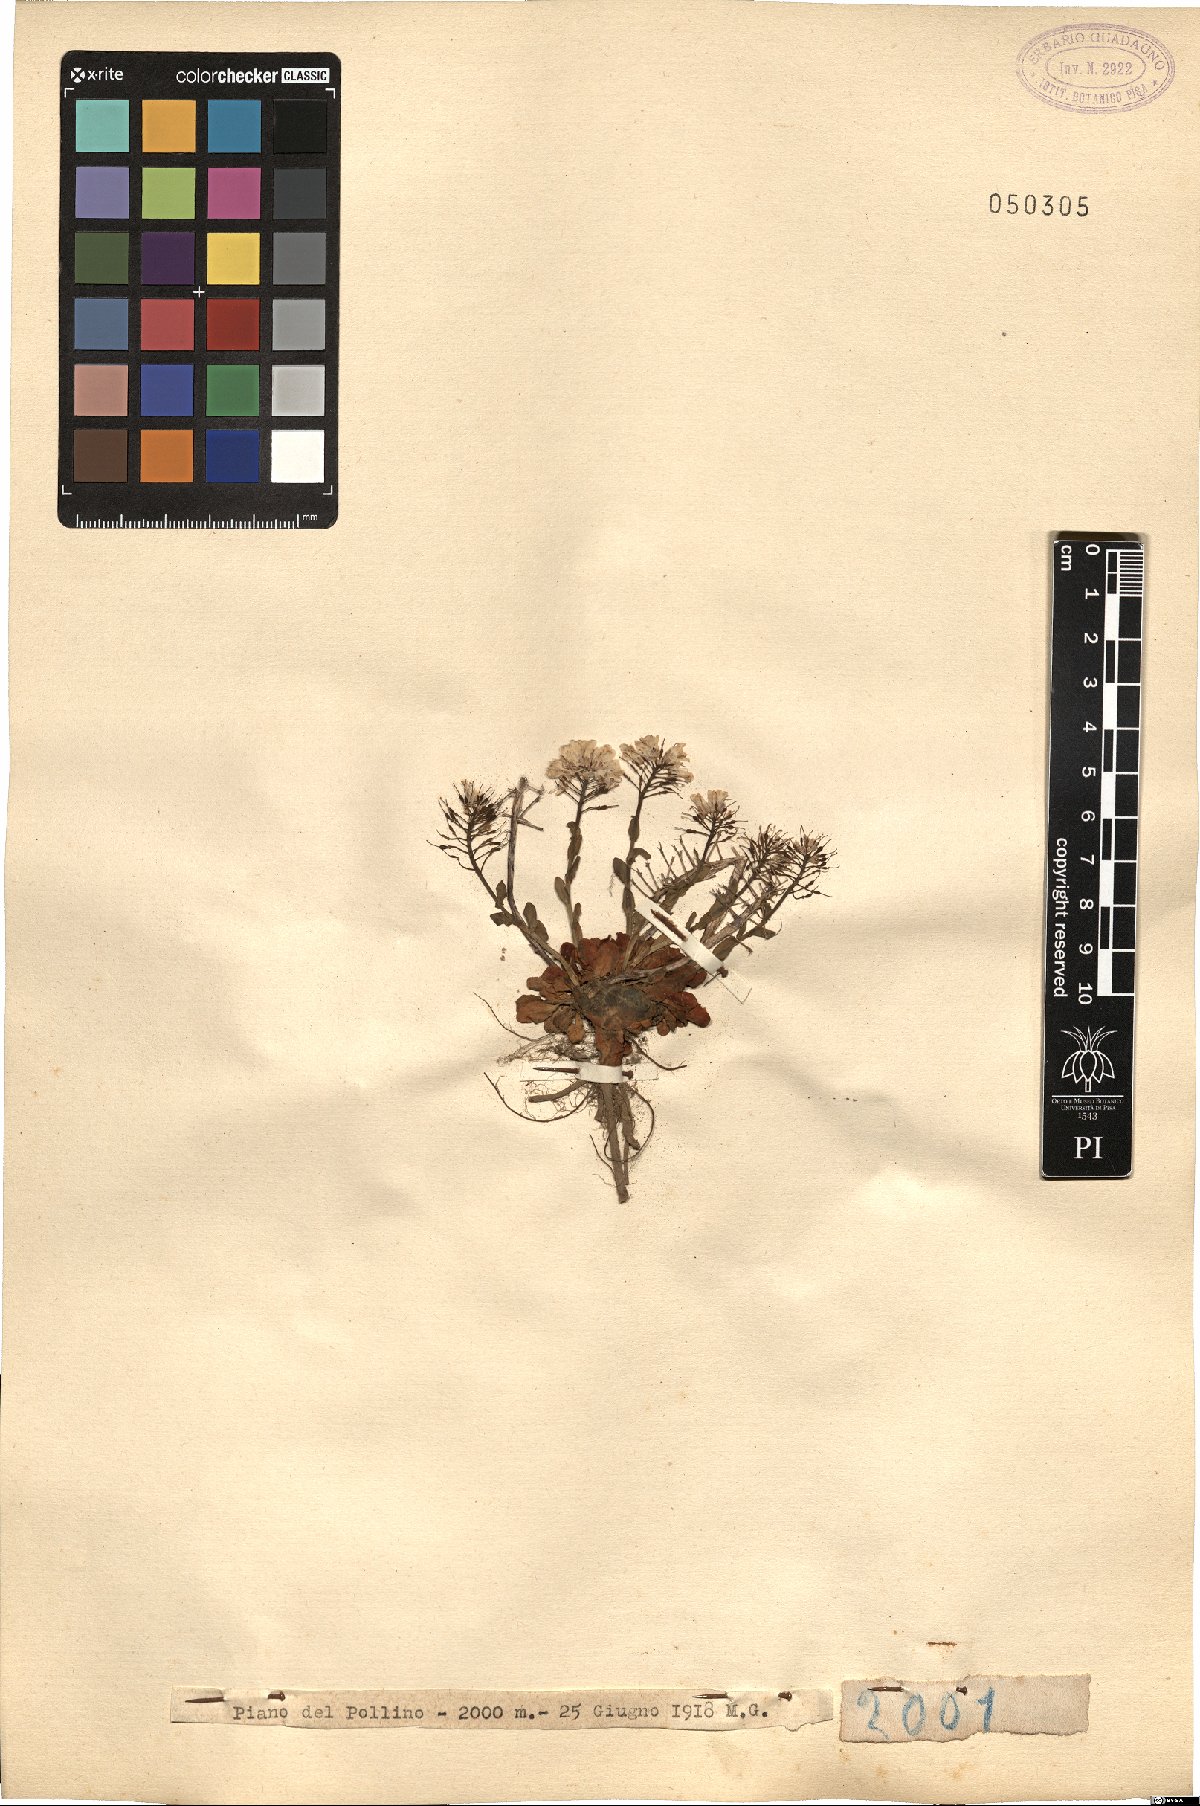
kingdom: Plantae
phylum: Tracheophyta
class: Magnoliopsida
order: Brassicales
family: Brassicaceae
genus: Thlaspi
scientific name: Thlaspi
